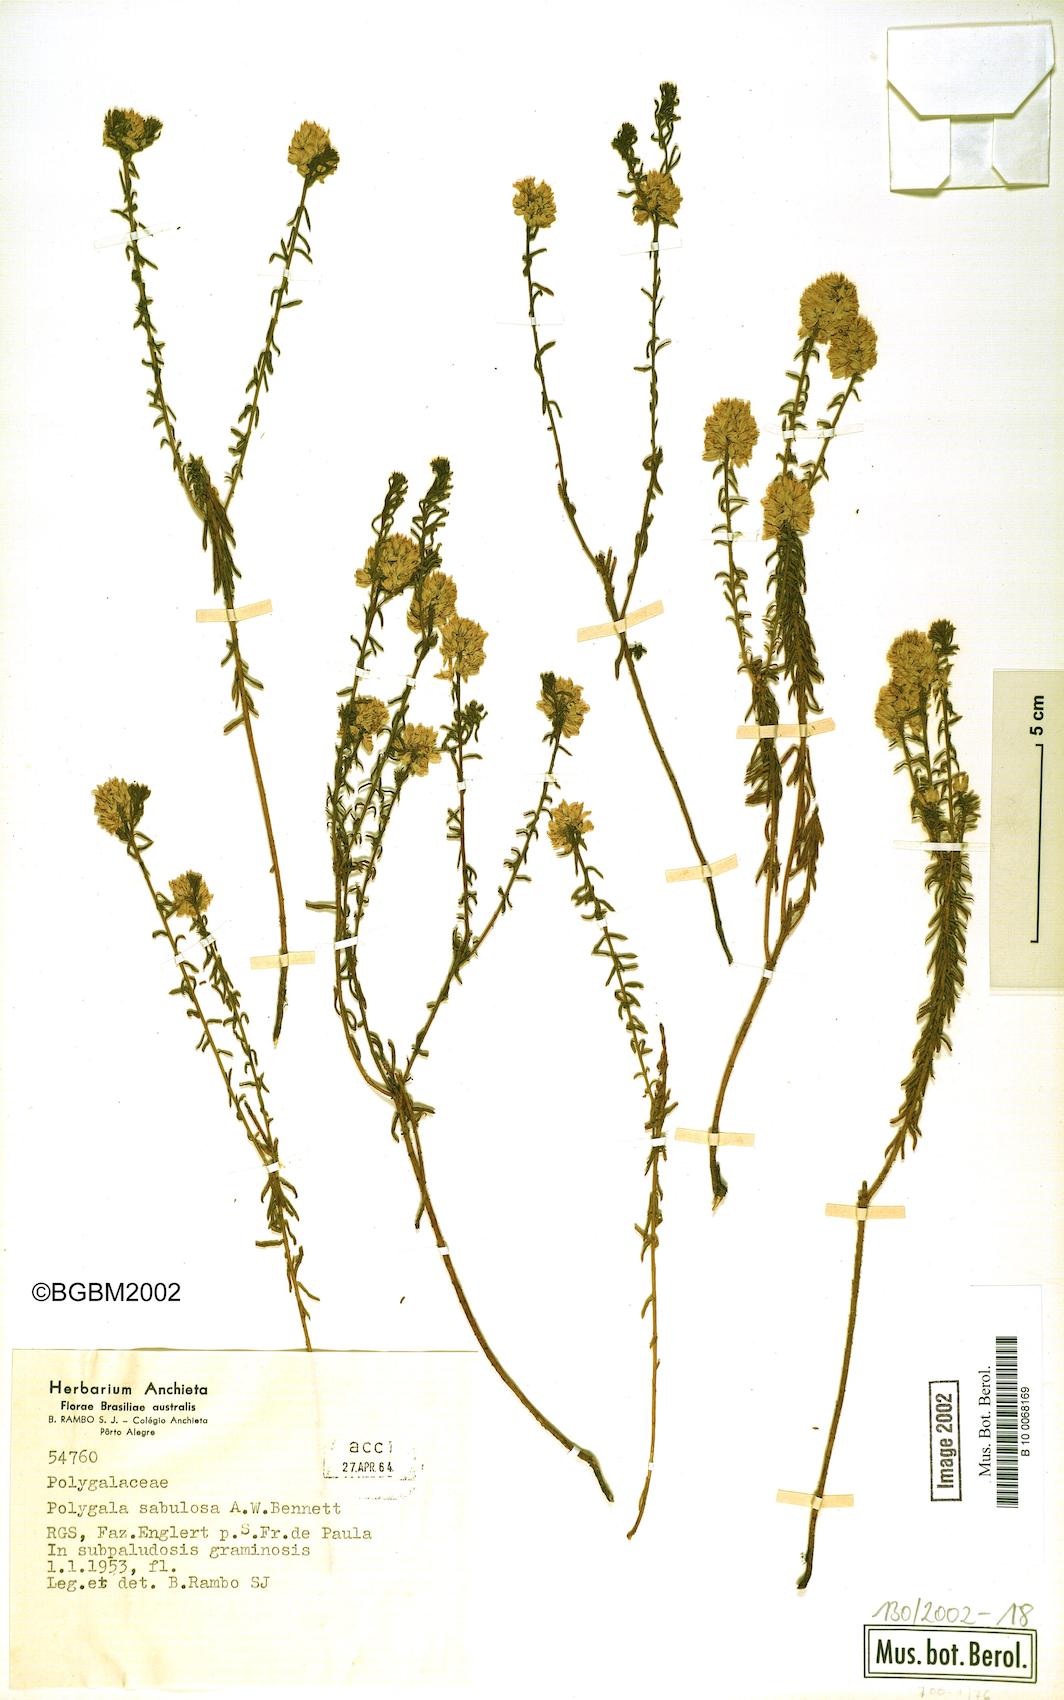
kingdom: Plantae
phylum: Tracheophyta
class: Magnoliopsida
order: Fabales
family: Polygalaceae
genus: Polygala
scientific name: Polygala sellowiana
